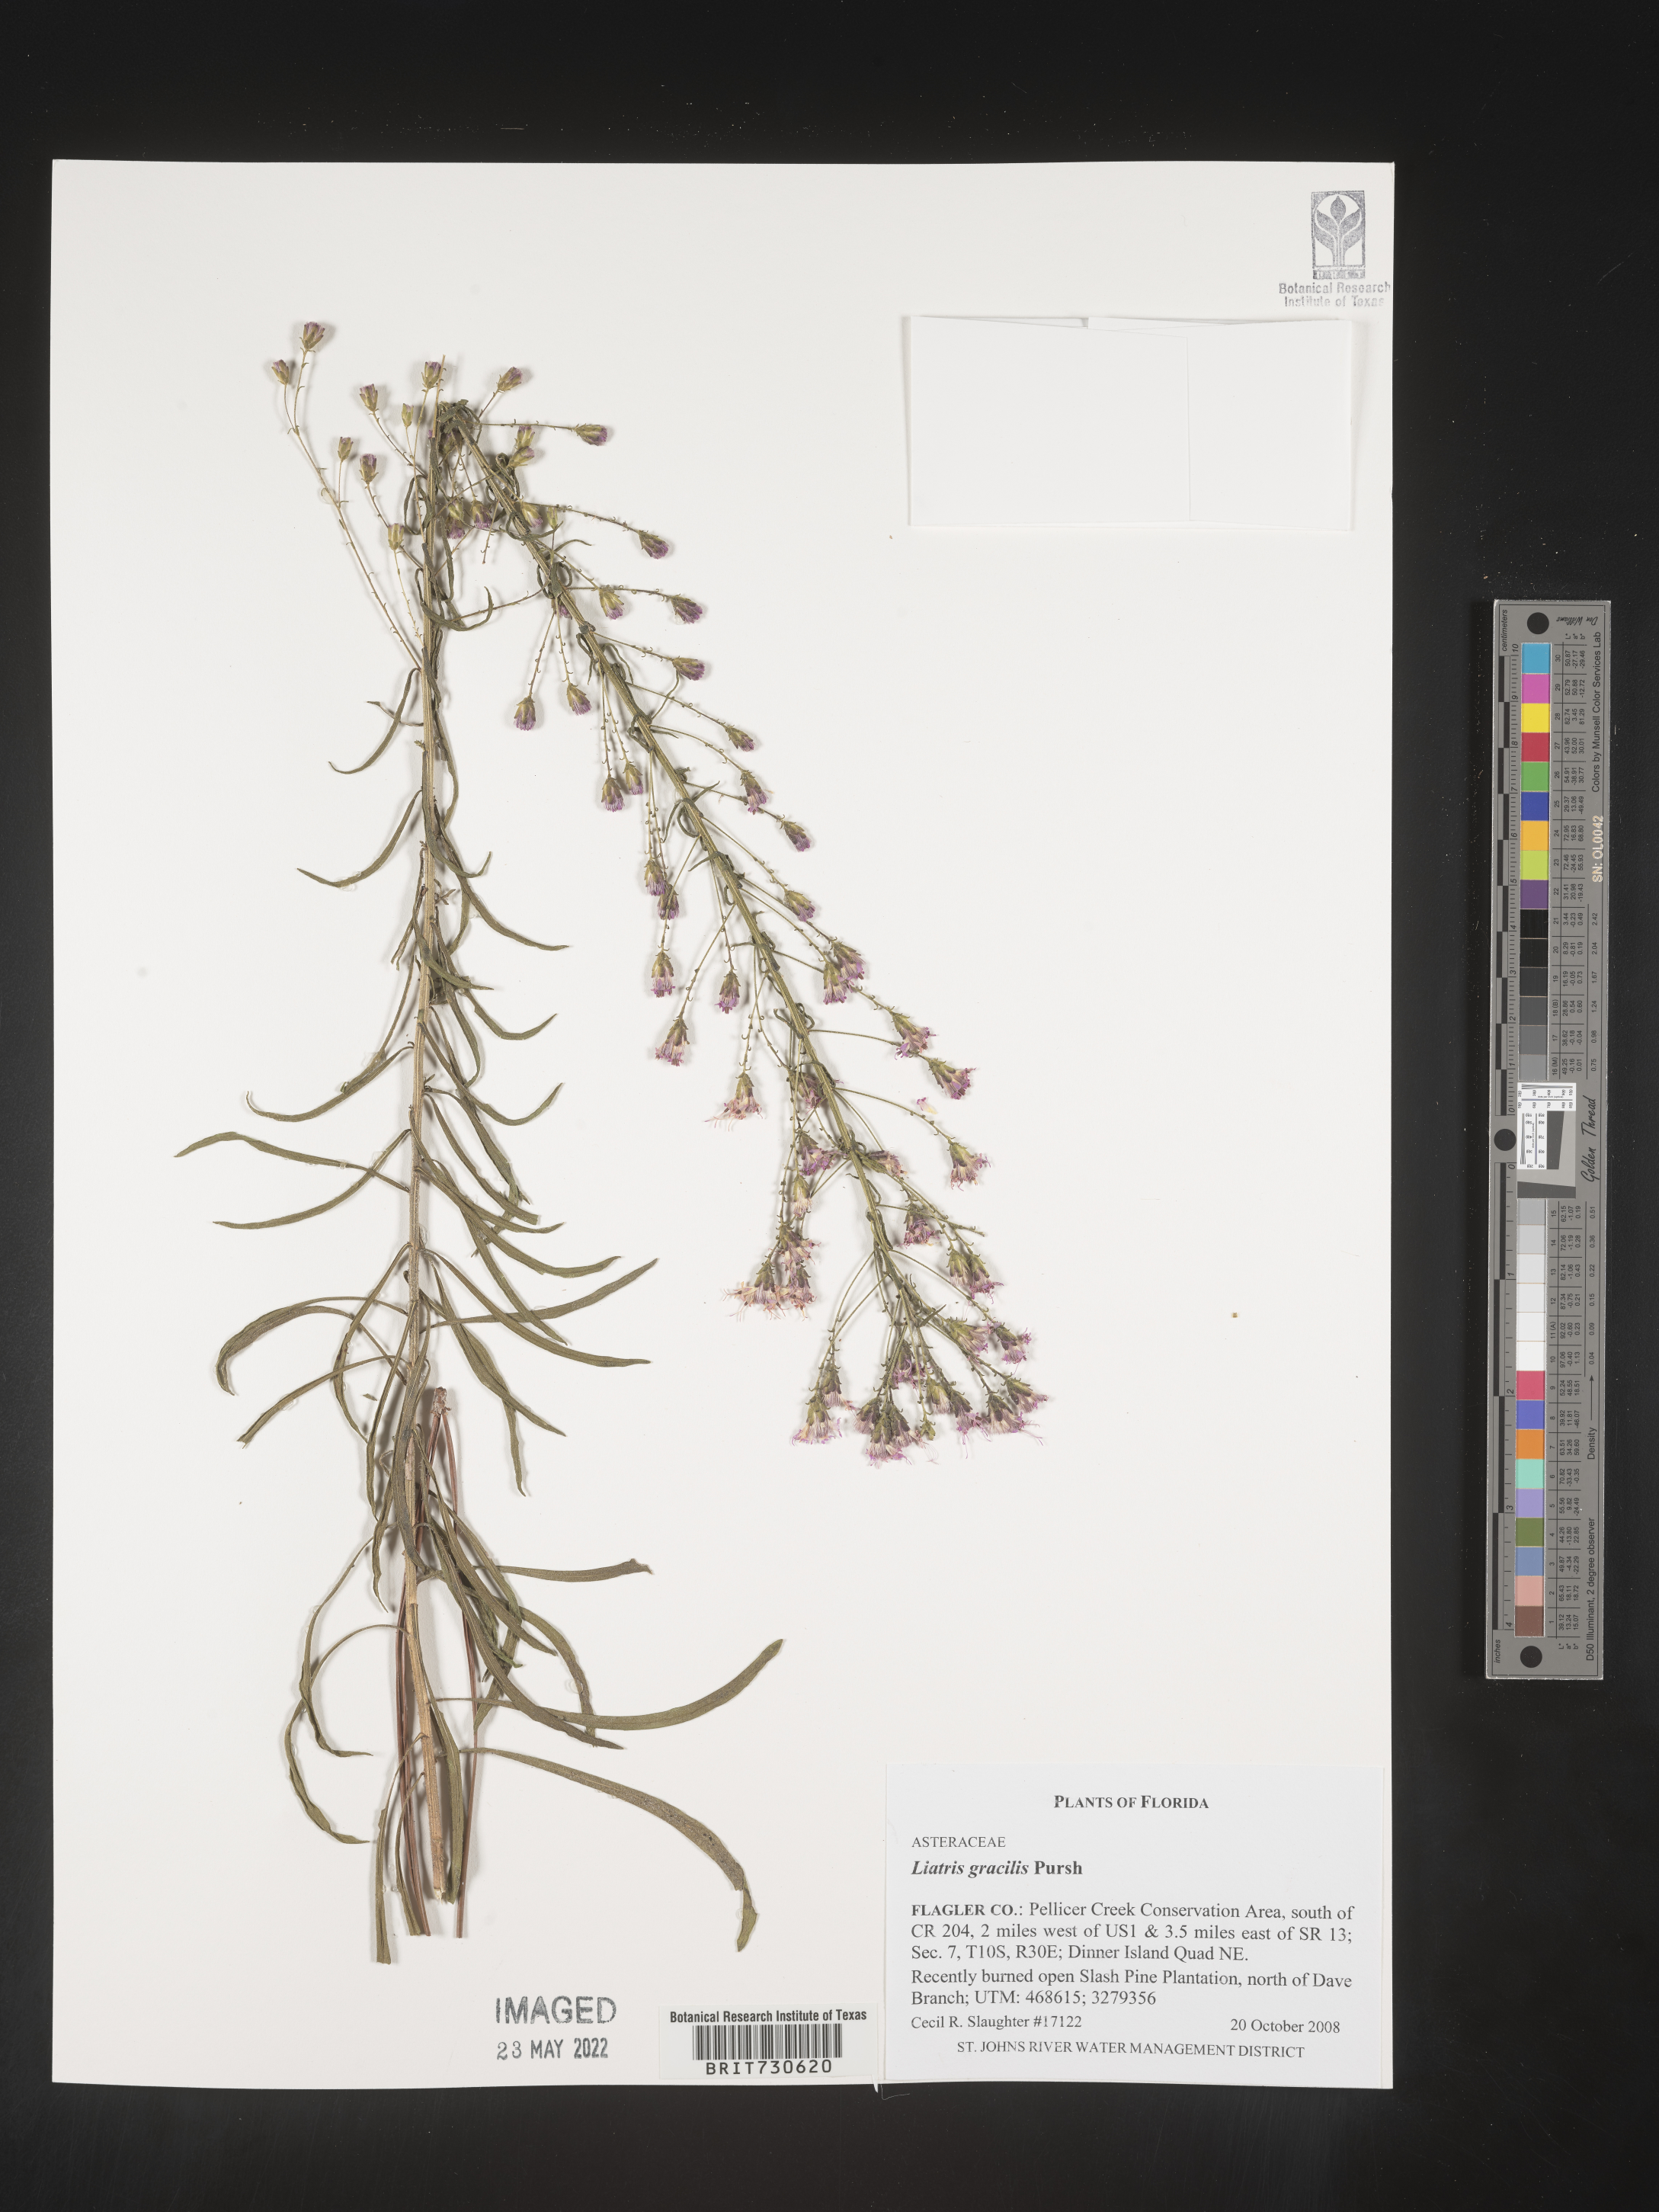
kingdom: Plantae
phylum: Tracheophyta
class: Magnoliopsida
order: Asterales
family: Asteraceae
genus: Liatris
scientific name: Liatris gracilis
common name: Slender gayfeather
